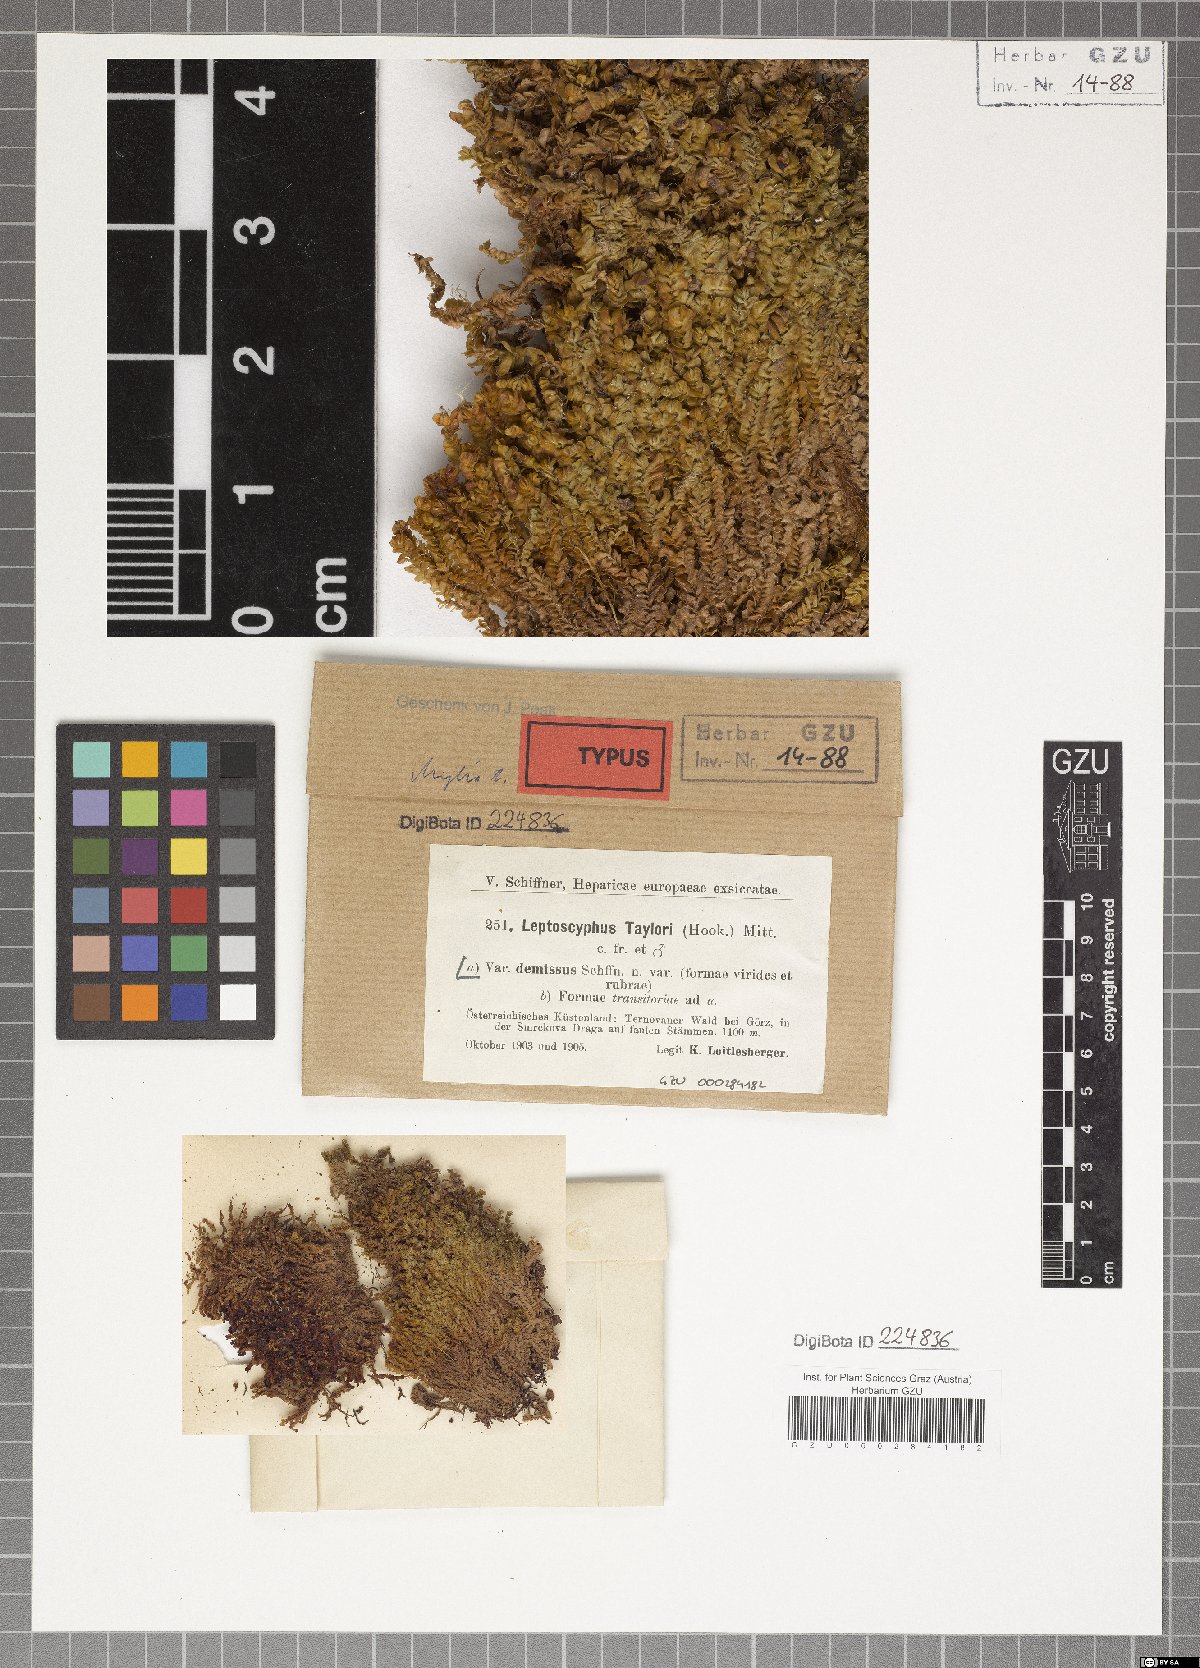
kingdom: Plantae
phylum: Marchantiophyta
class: Jungermanniopsida
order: Jungermanniales
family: Myliaceae
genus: Mylia
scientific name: Mylia taylorii
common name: Taylor s flapwort
